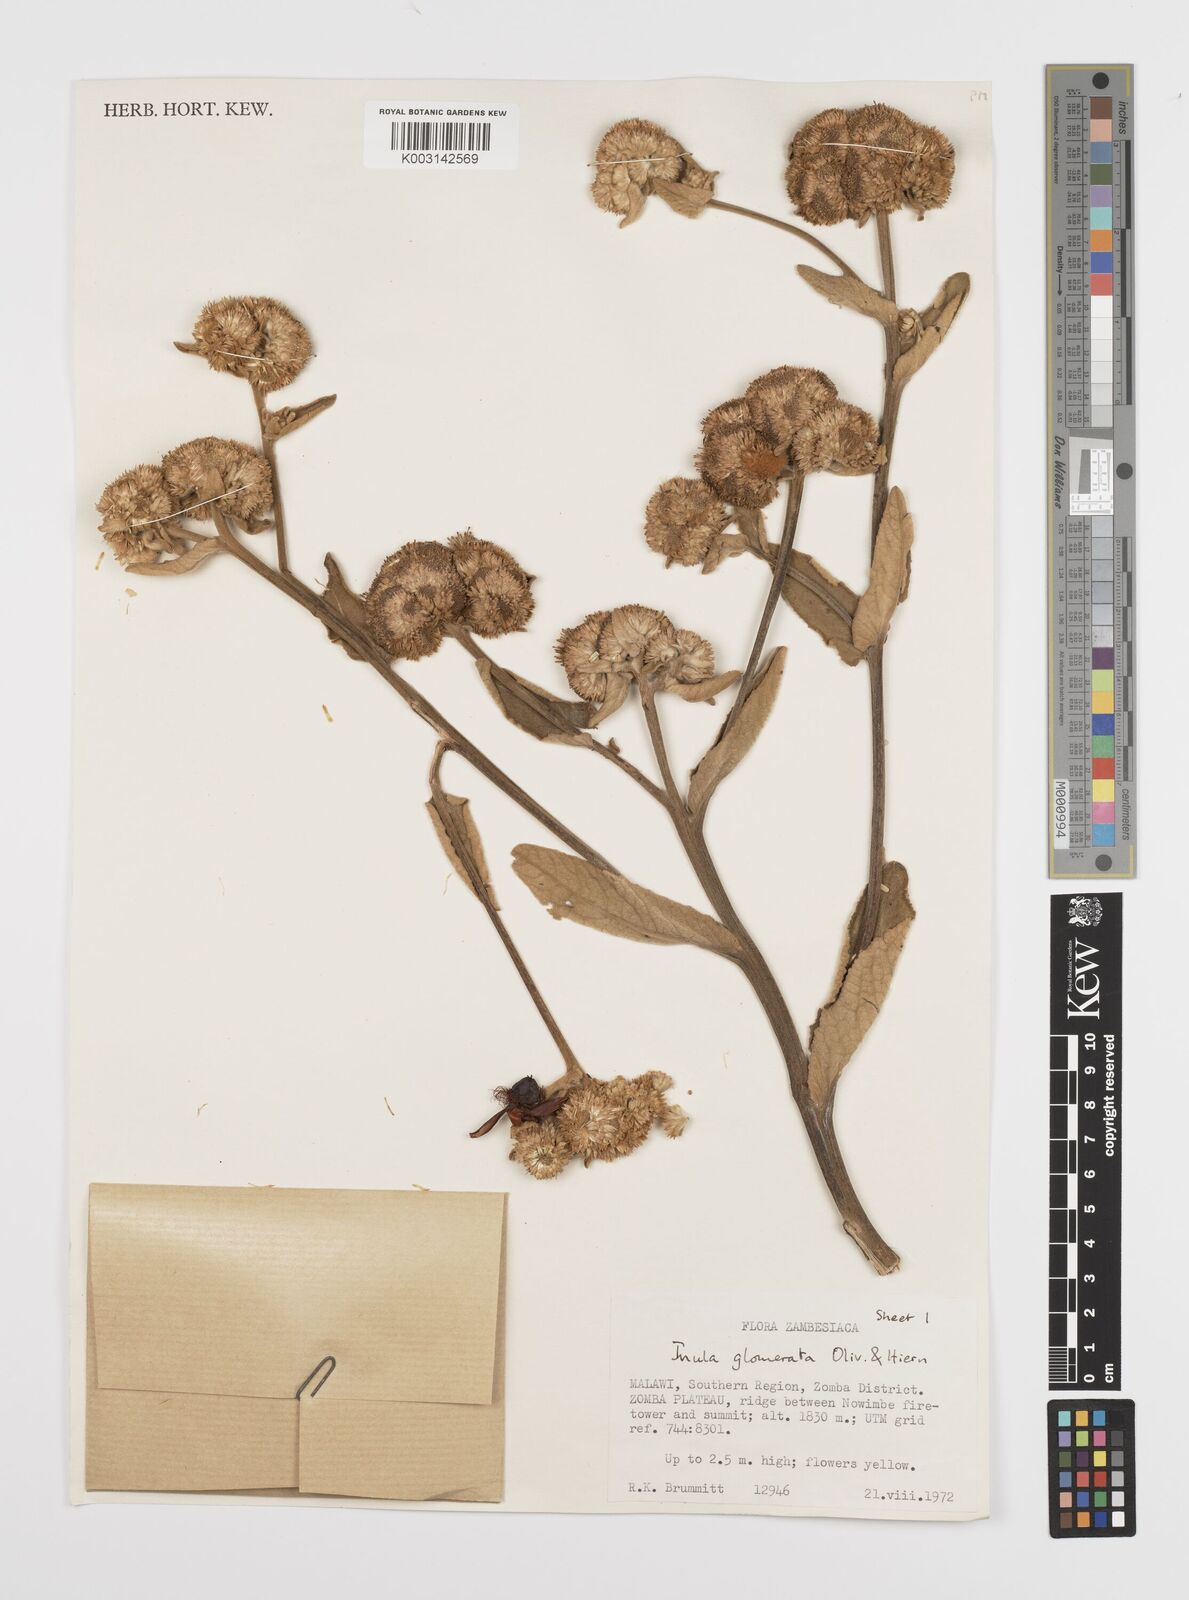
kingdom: Plantae
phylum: Tracheophyta
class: Magnoliopsida
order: Asterales
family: Asteraceae
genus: Inula
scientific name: Inula glomerata
